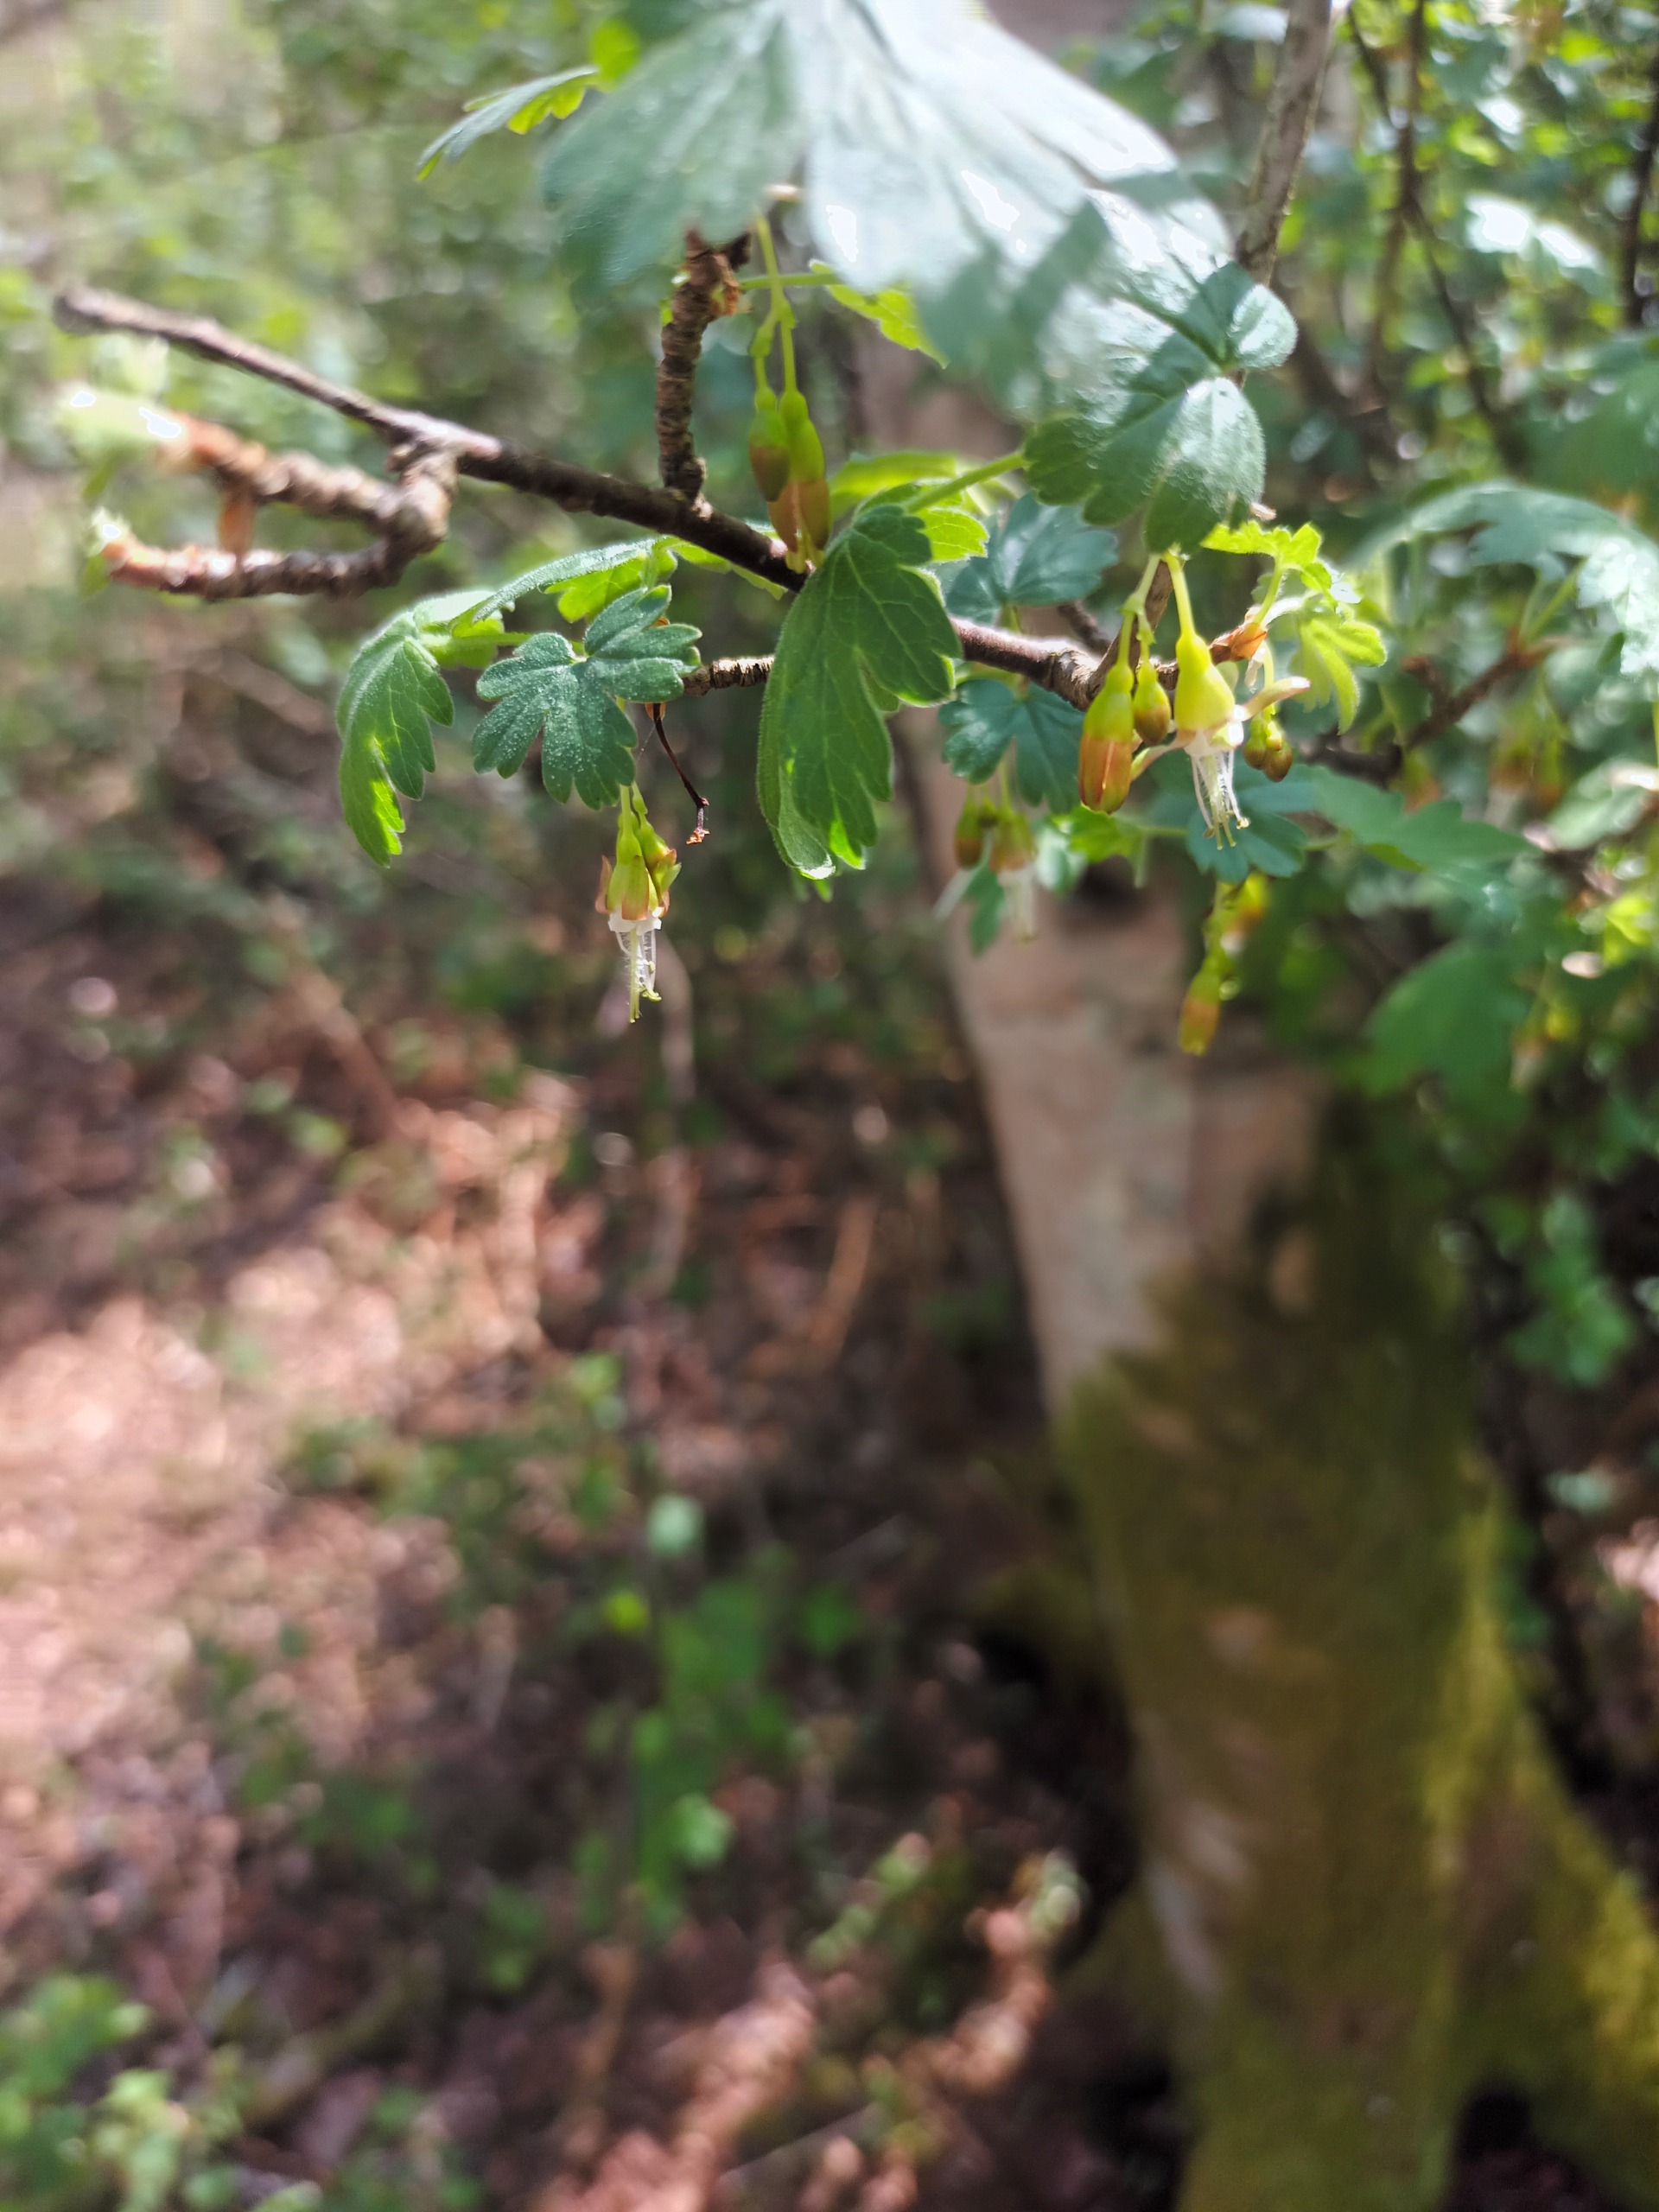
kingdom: Plantae
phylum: Tracheophyta
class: Magnoliopsida
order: Saxifragales
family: Grossulariaceae
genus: Ribes
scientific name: Ribes divaricatum
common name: Oregonstikkelsbær
